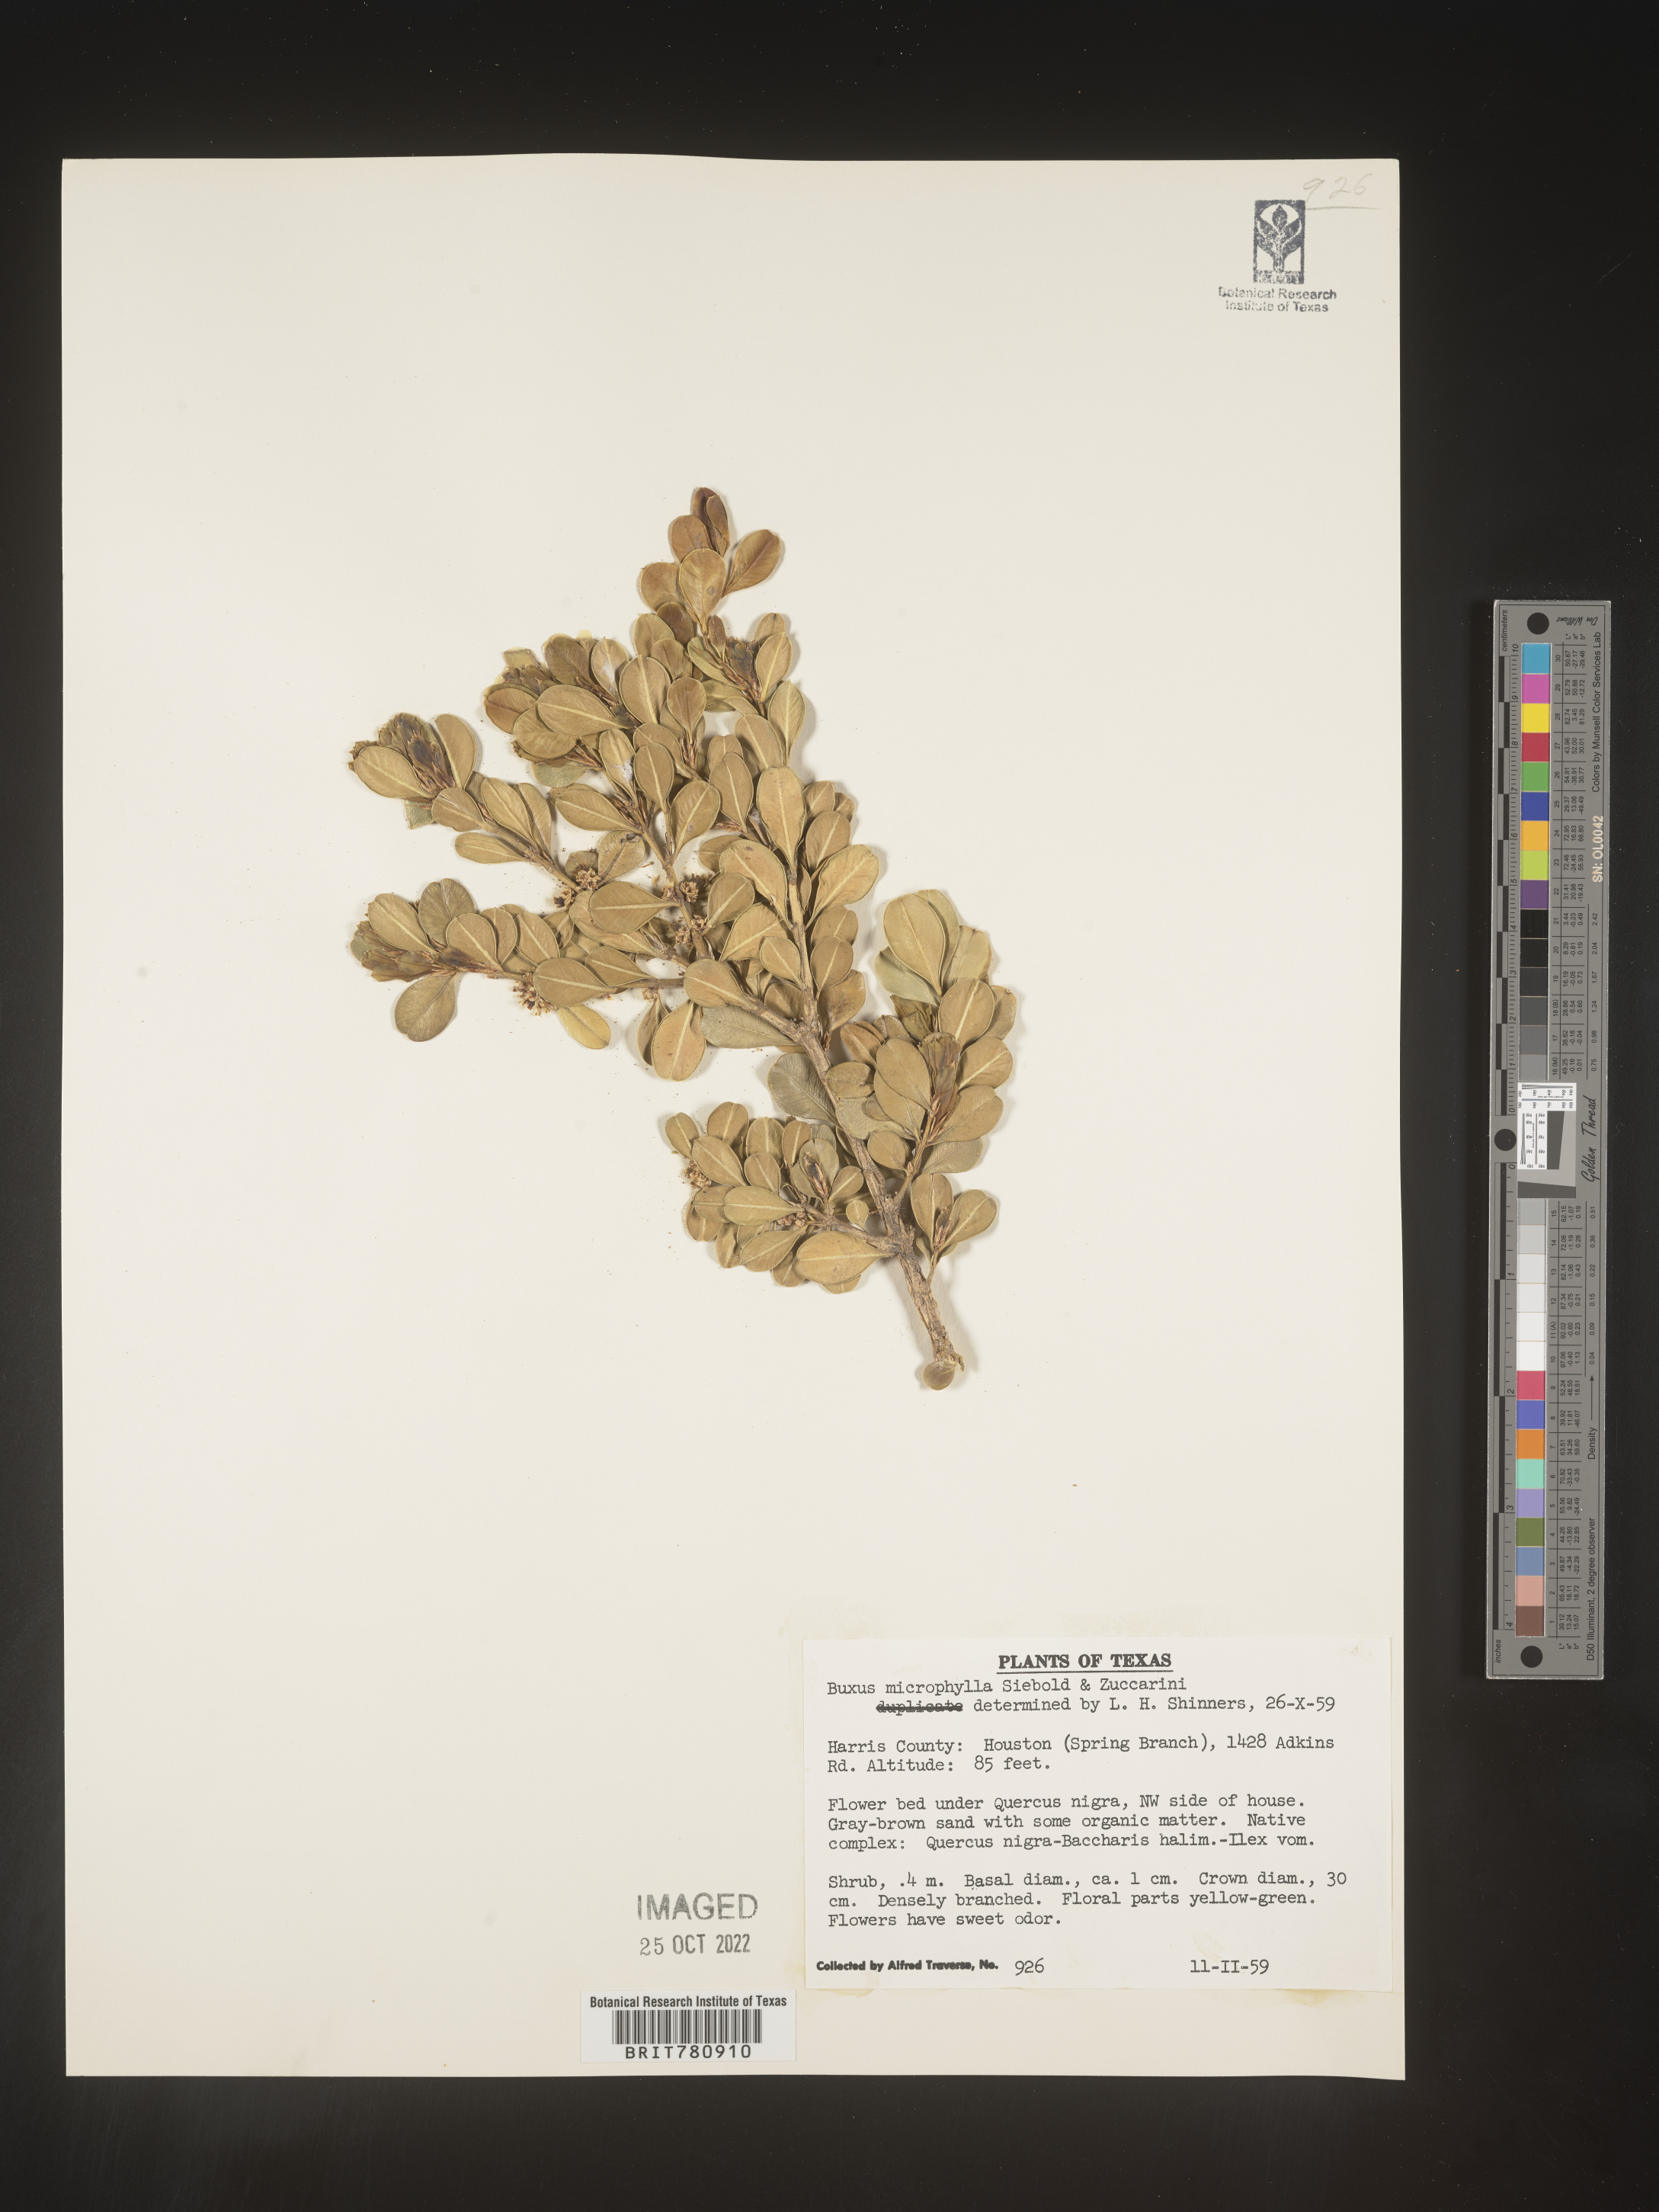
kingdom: Plantae
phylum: Tracheophyta
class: Magnoliopsida
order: Buxales
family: Buxaceae
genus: Buxus
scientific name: Buxus
